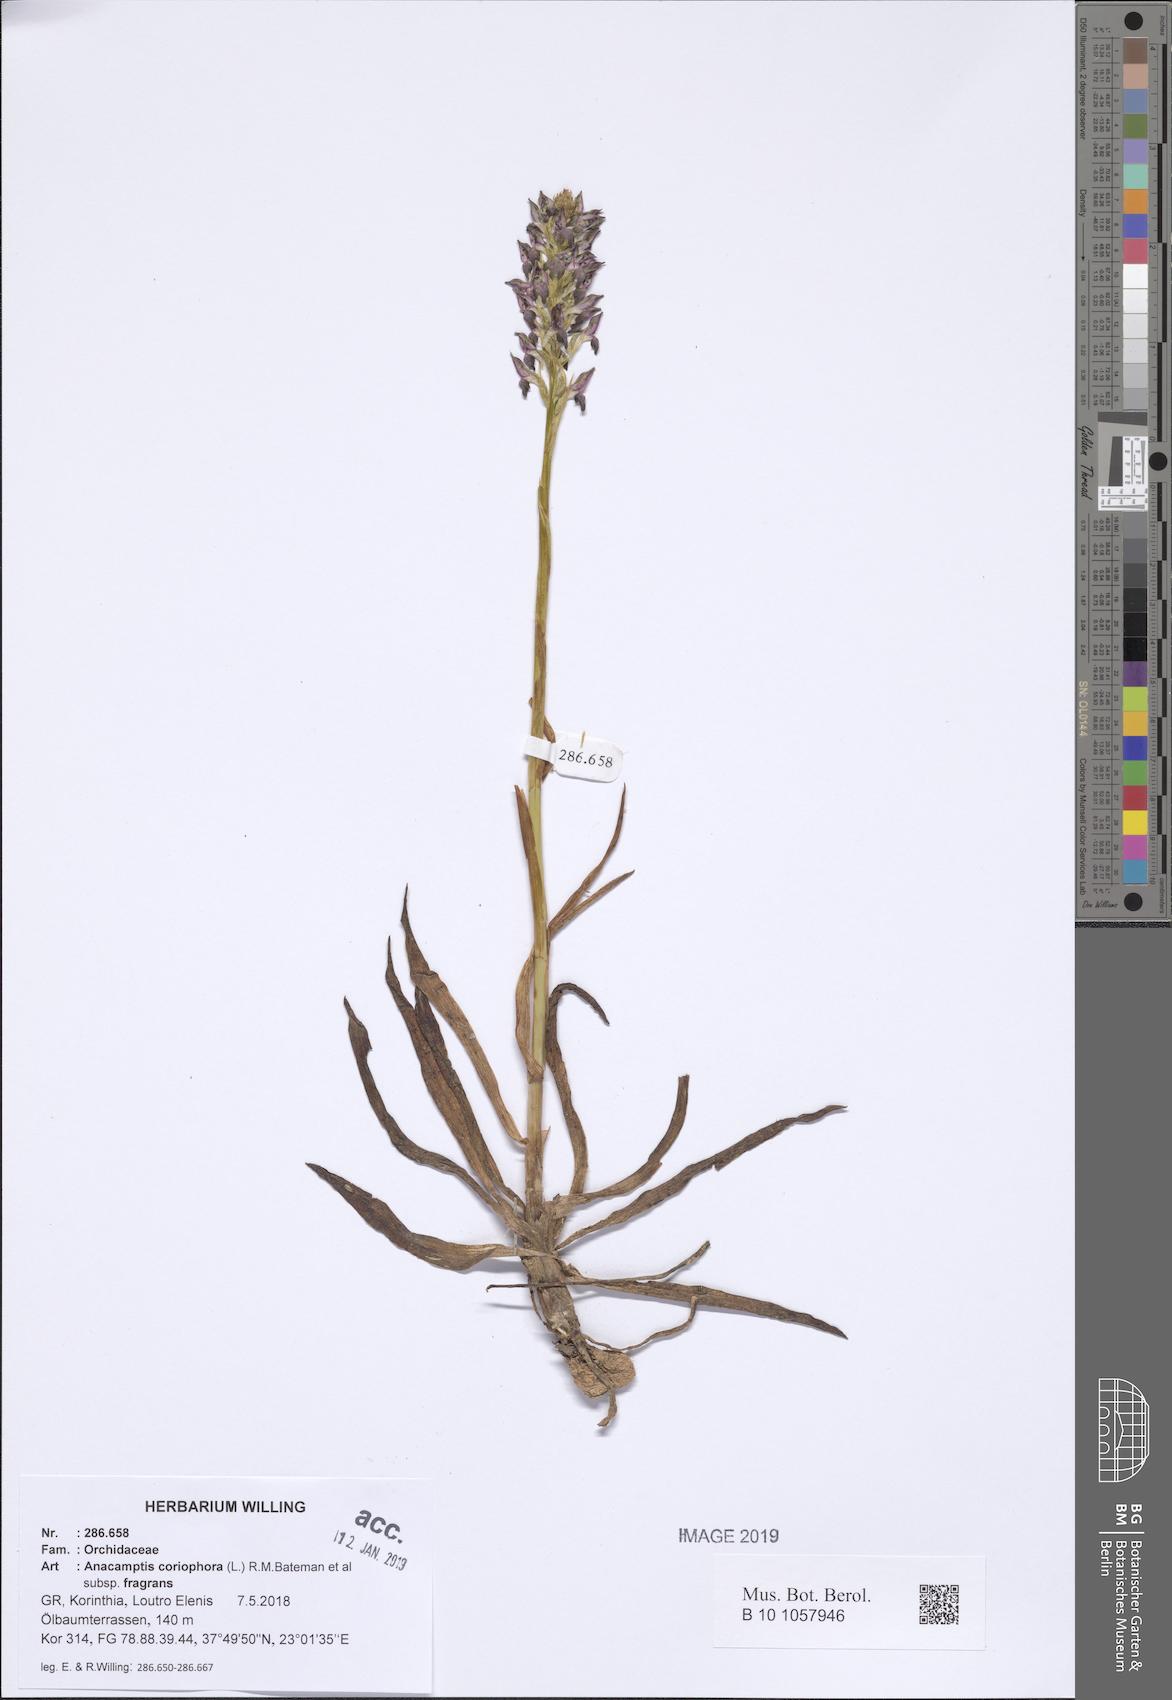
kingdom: Plantae
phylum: Tracheophyta
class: Liliopsida
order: Asparagales
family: Orchidaceae
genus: Anacamptis
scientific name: Anacamptis coriophora
